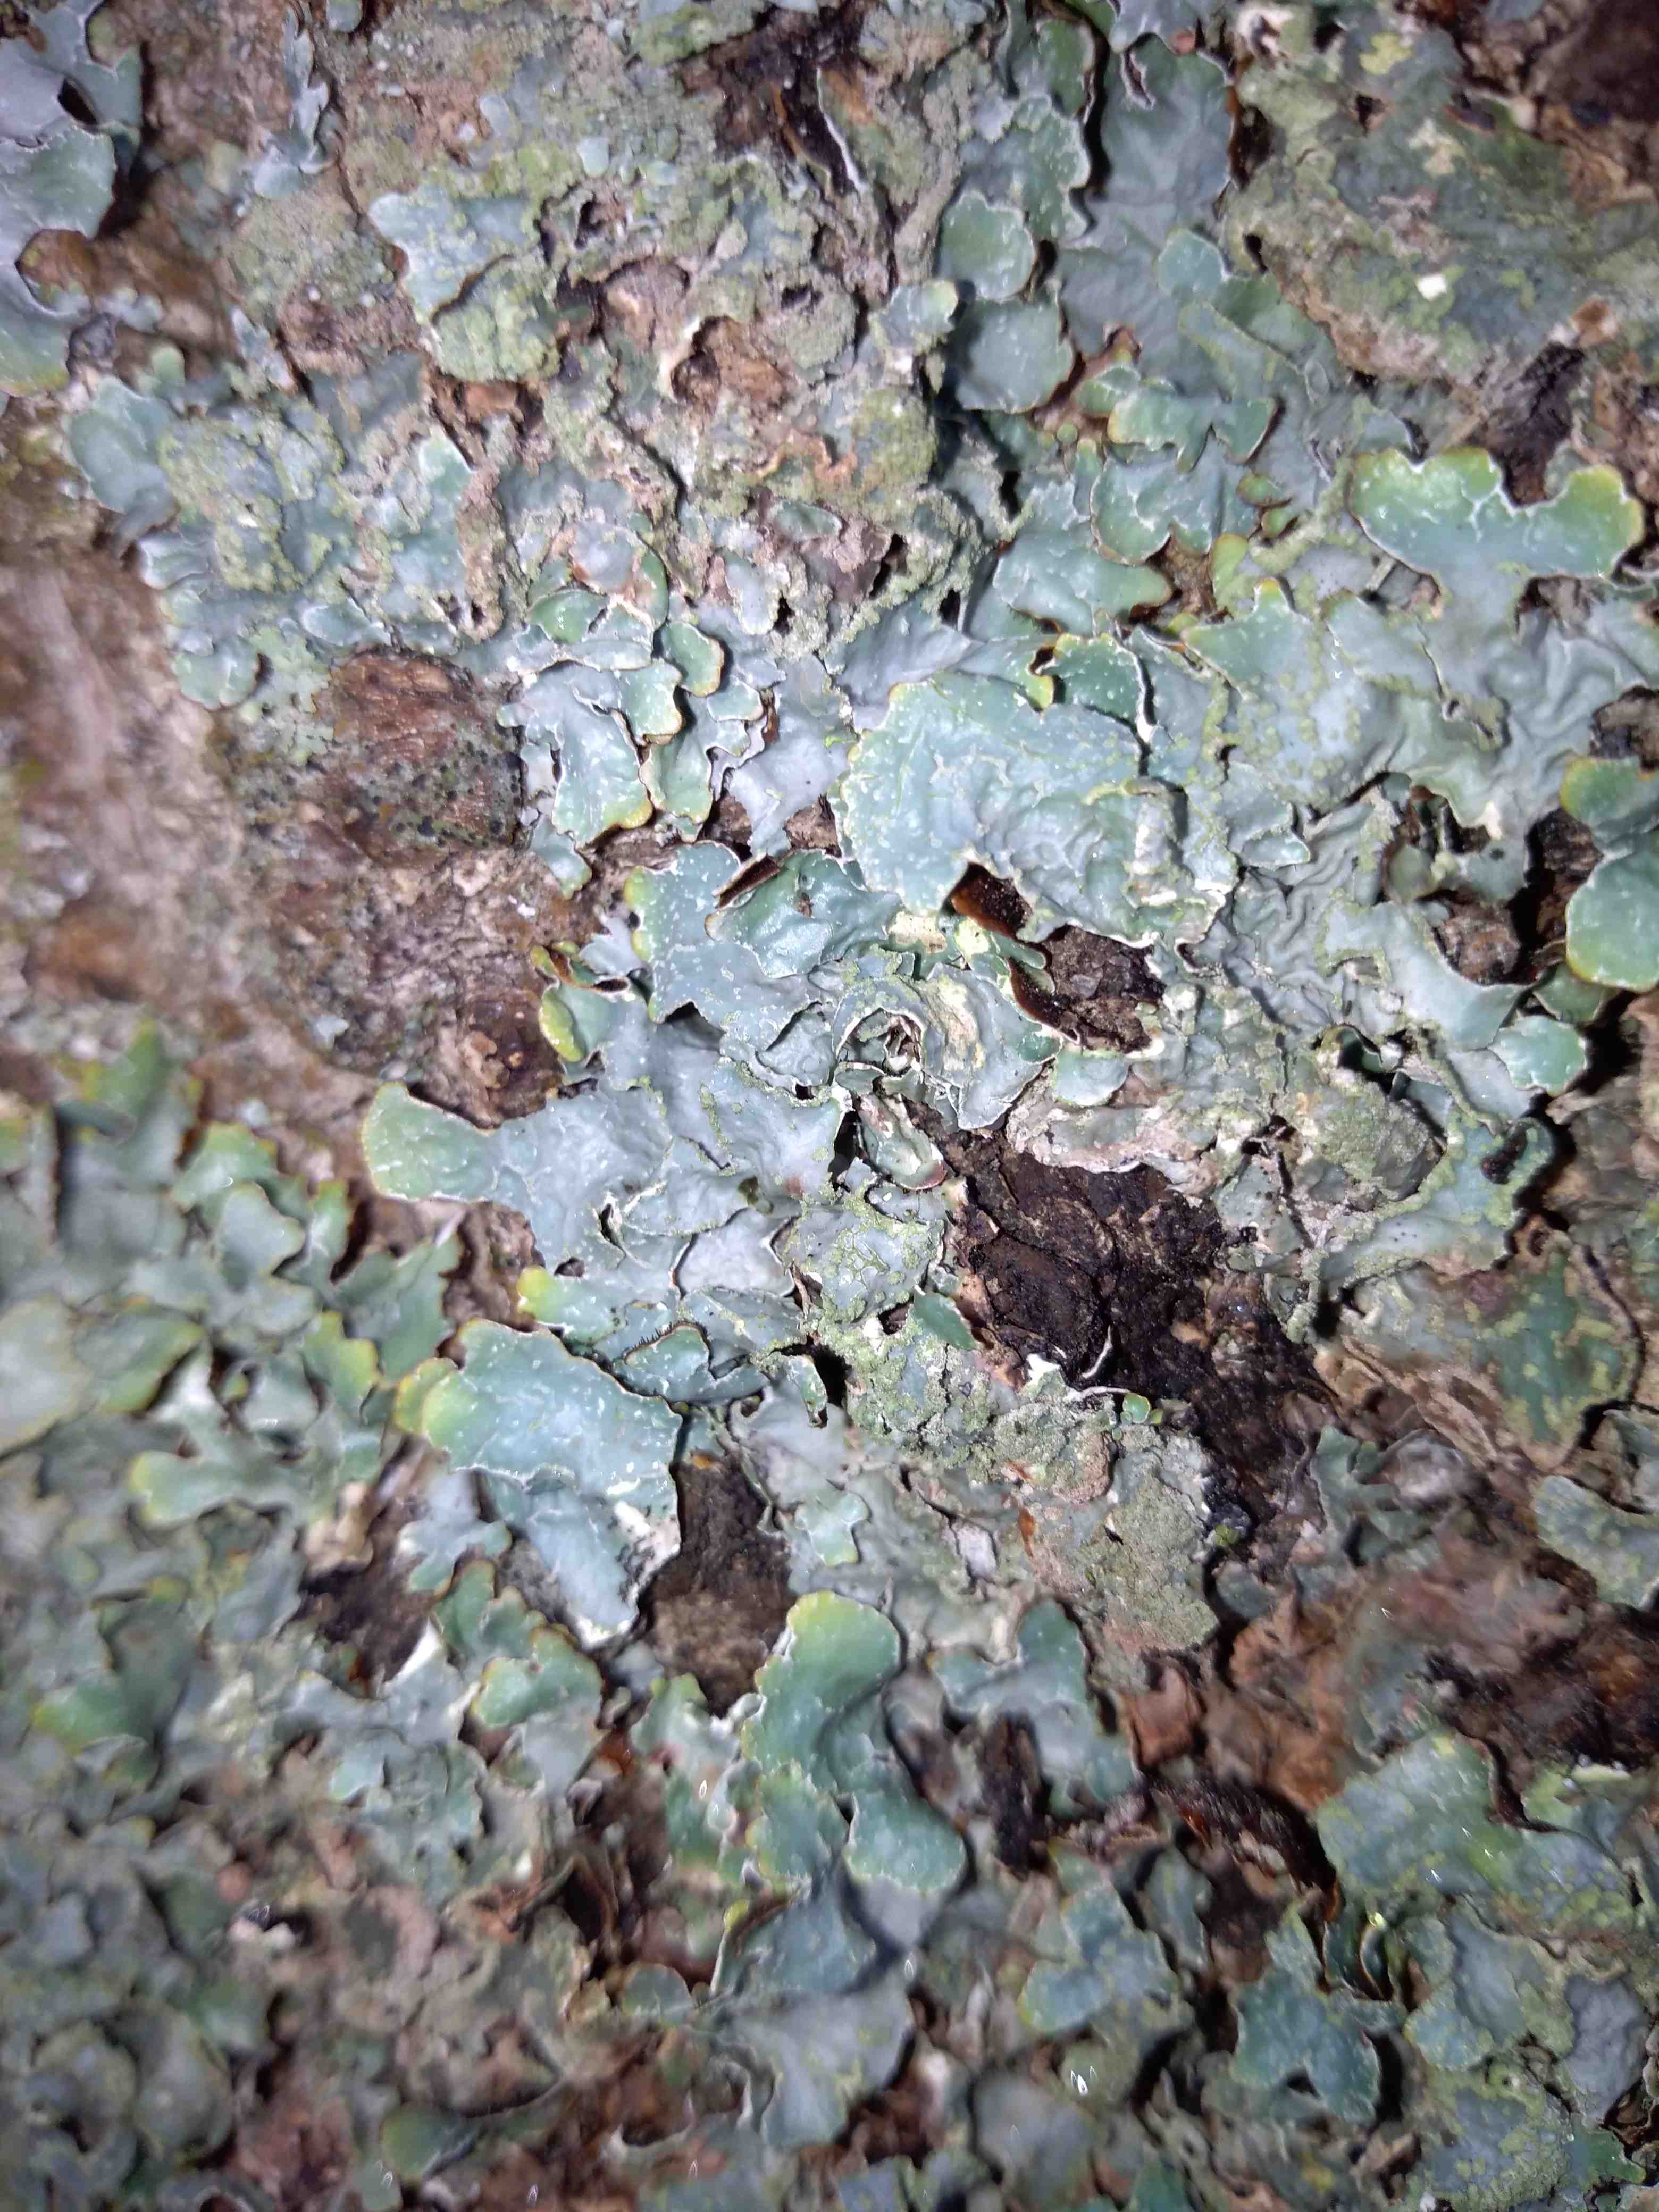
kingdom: Fungi
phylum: Ascomycota
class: Lecanoromycetes
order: Lecanorales
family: Parmeliaceae
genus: Parmelia
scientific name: Parmelia sulcata
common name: rynket skållav
